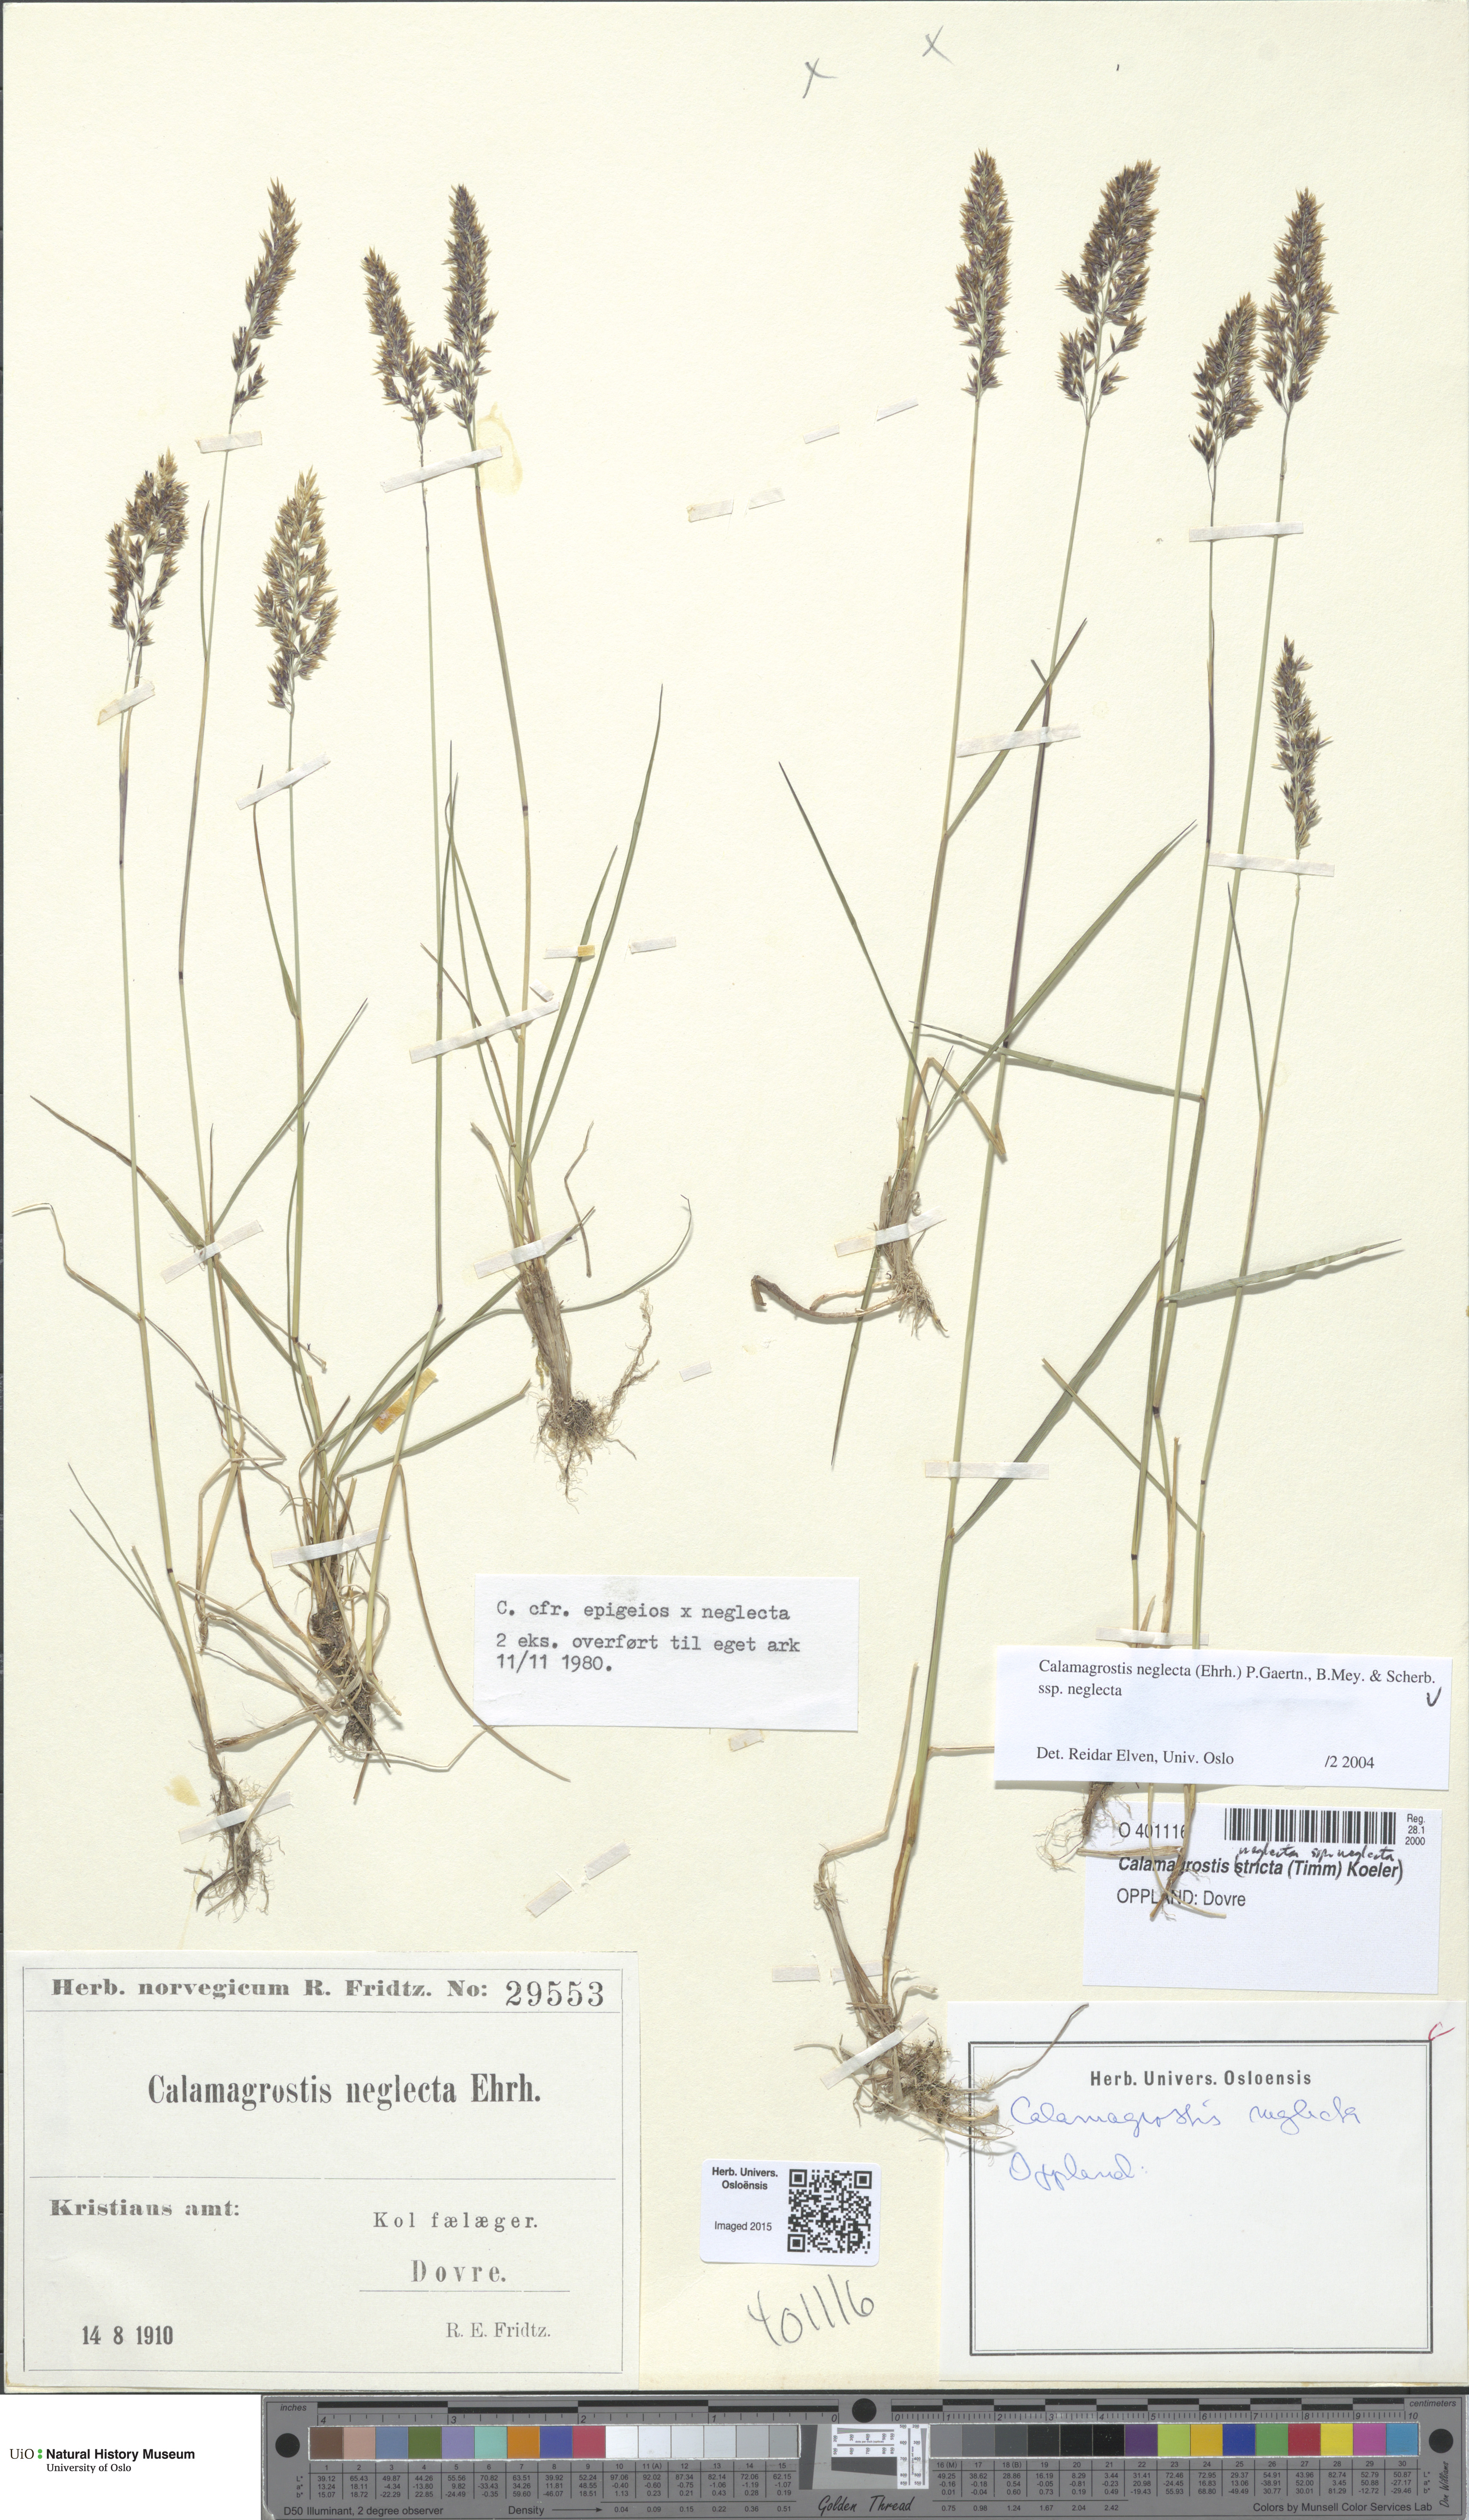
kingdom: Plantae
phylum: Tracheophyta
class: Liliopsida
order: Poales
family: Poaceae
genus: Achnatherum
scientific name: Achnatherum calamagrostis
